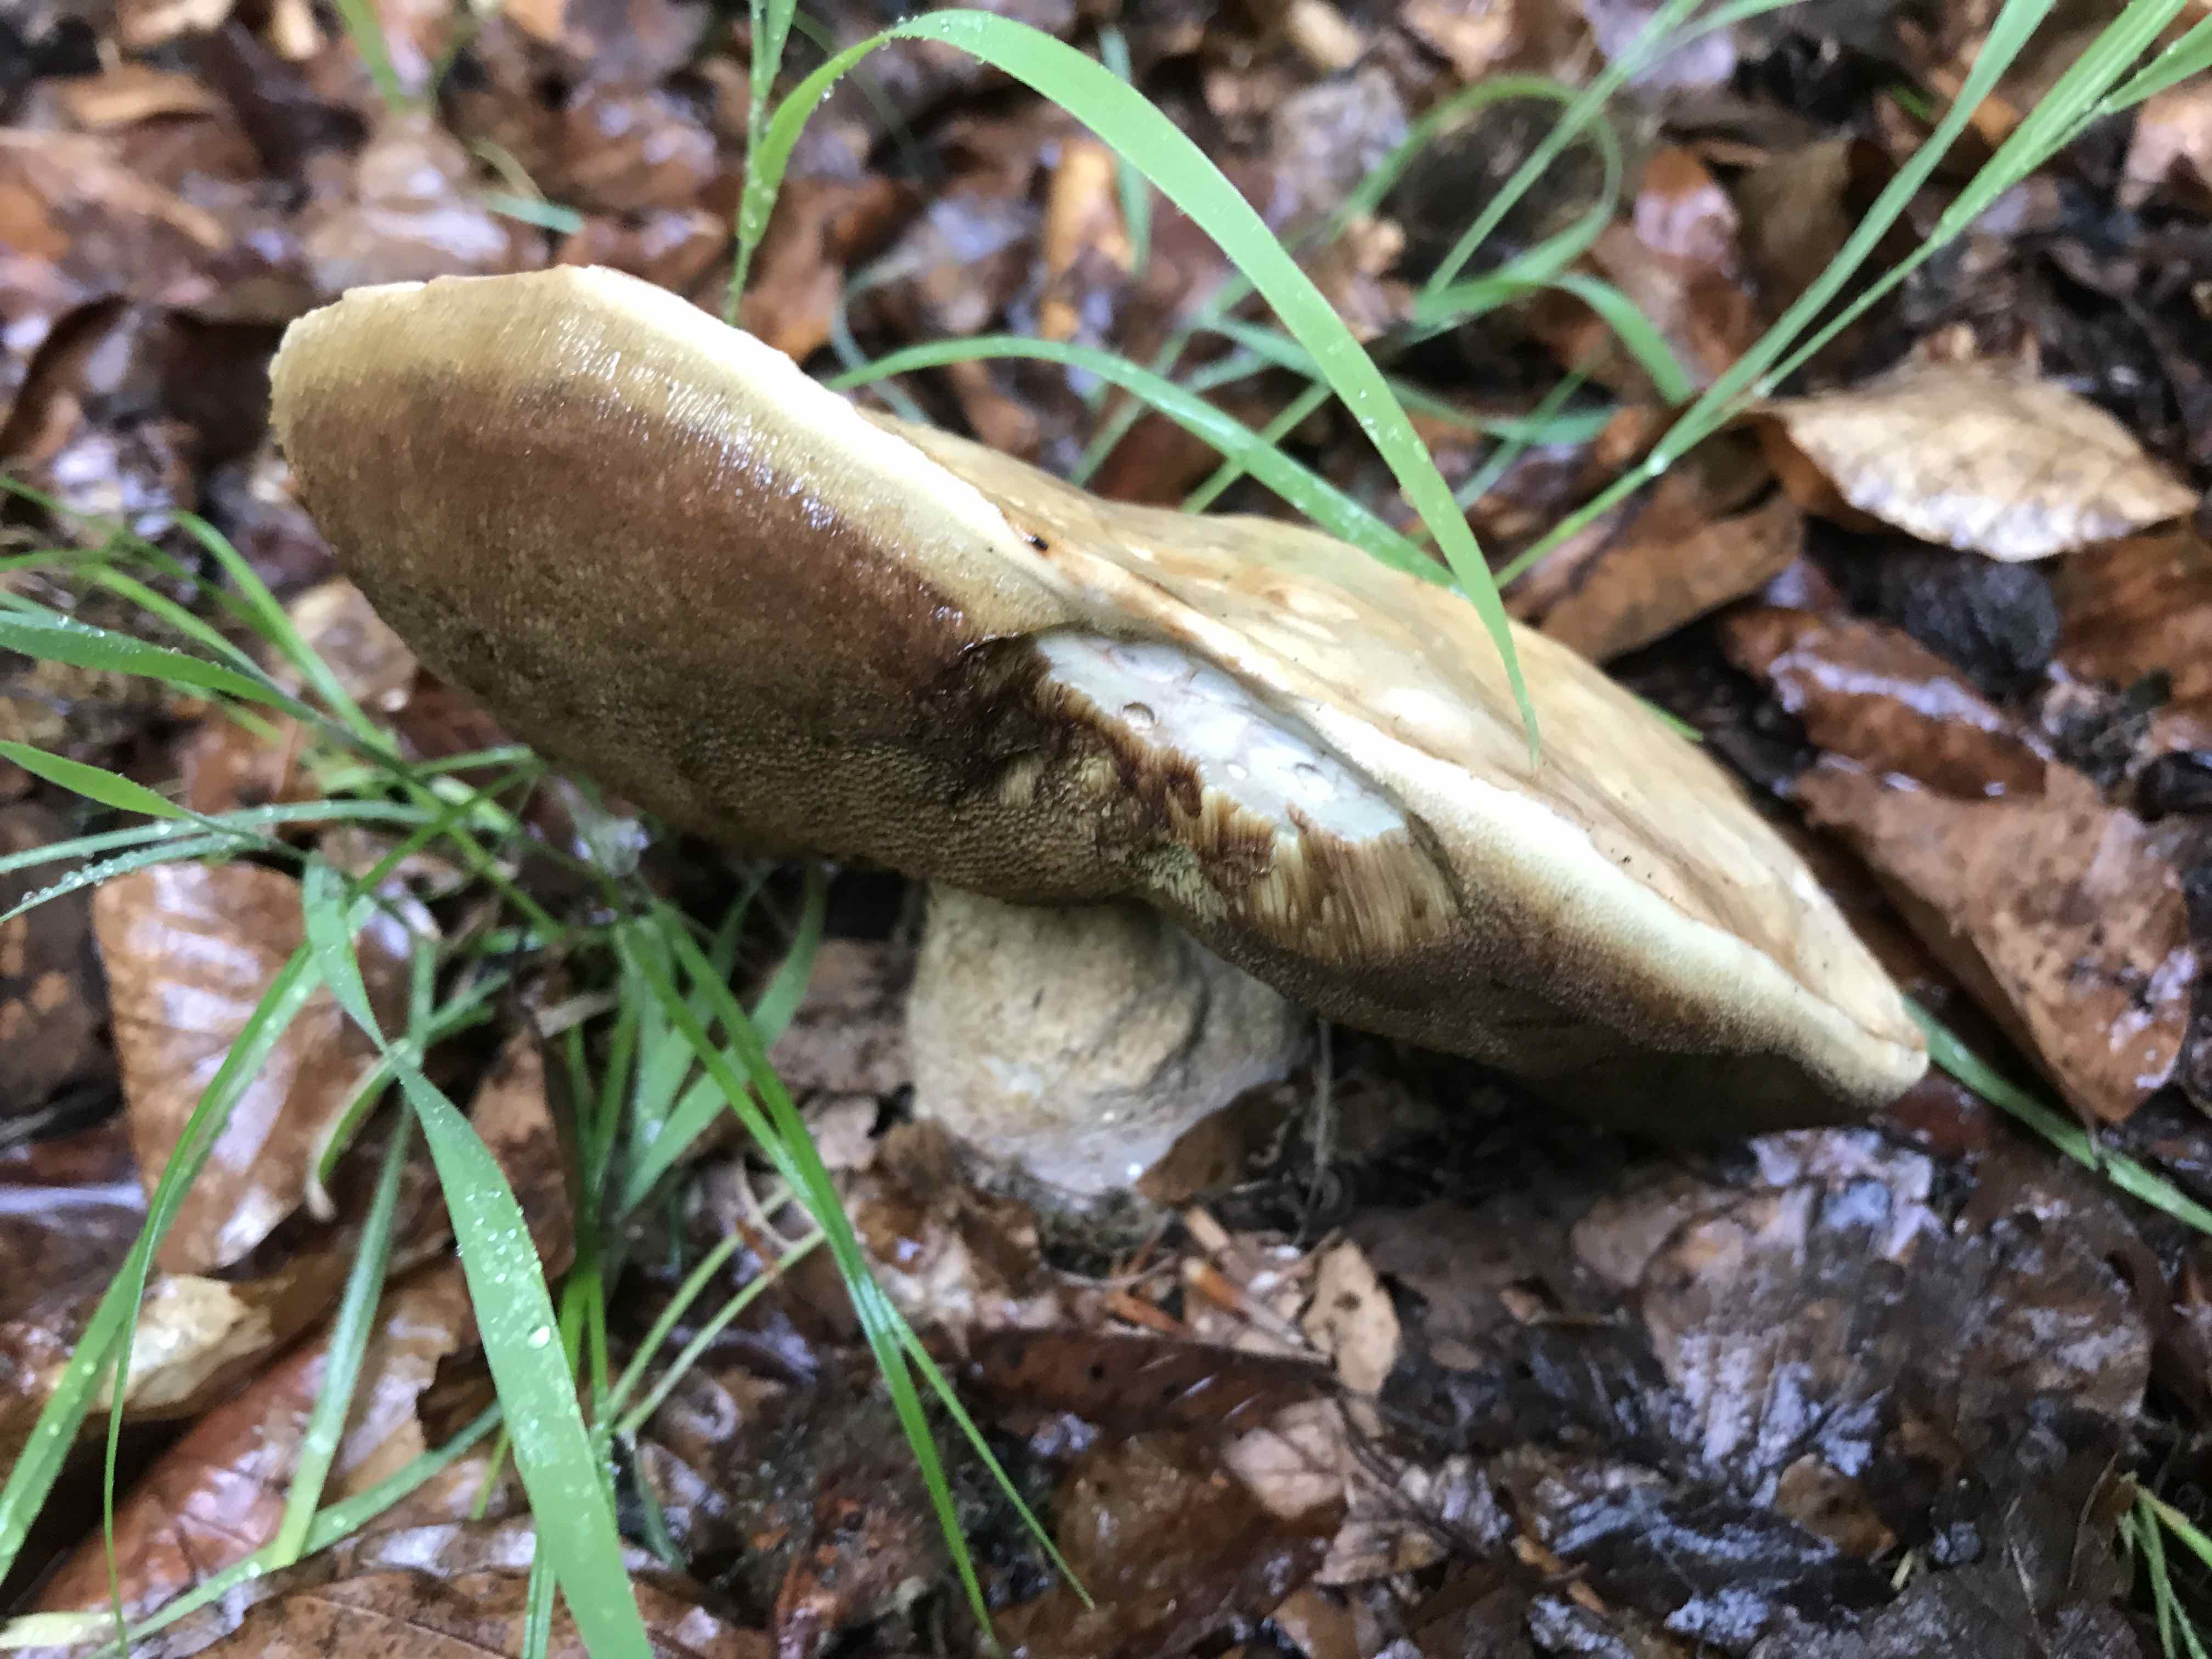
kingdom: Fungi
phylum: Basidiomycota
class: Agaricomycetes
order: Boletales
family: Boletaceae
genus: Boletus
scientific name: Boletus reticulatus
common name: sommer-rørhat
